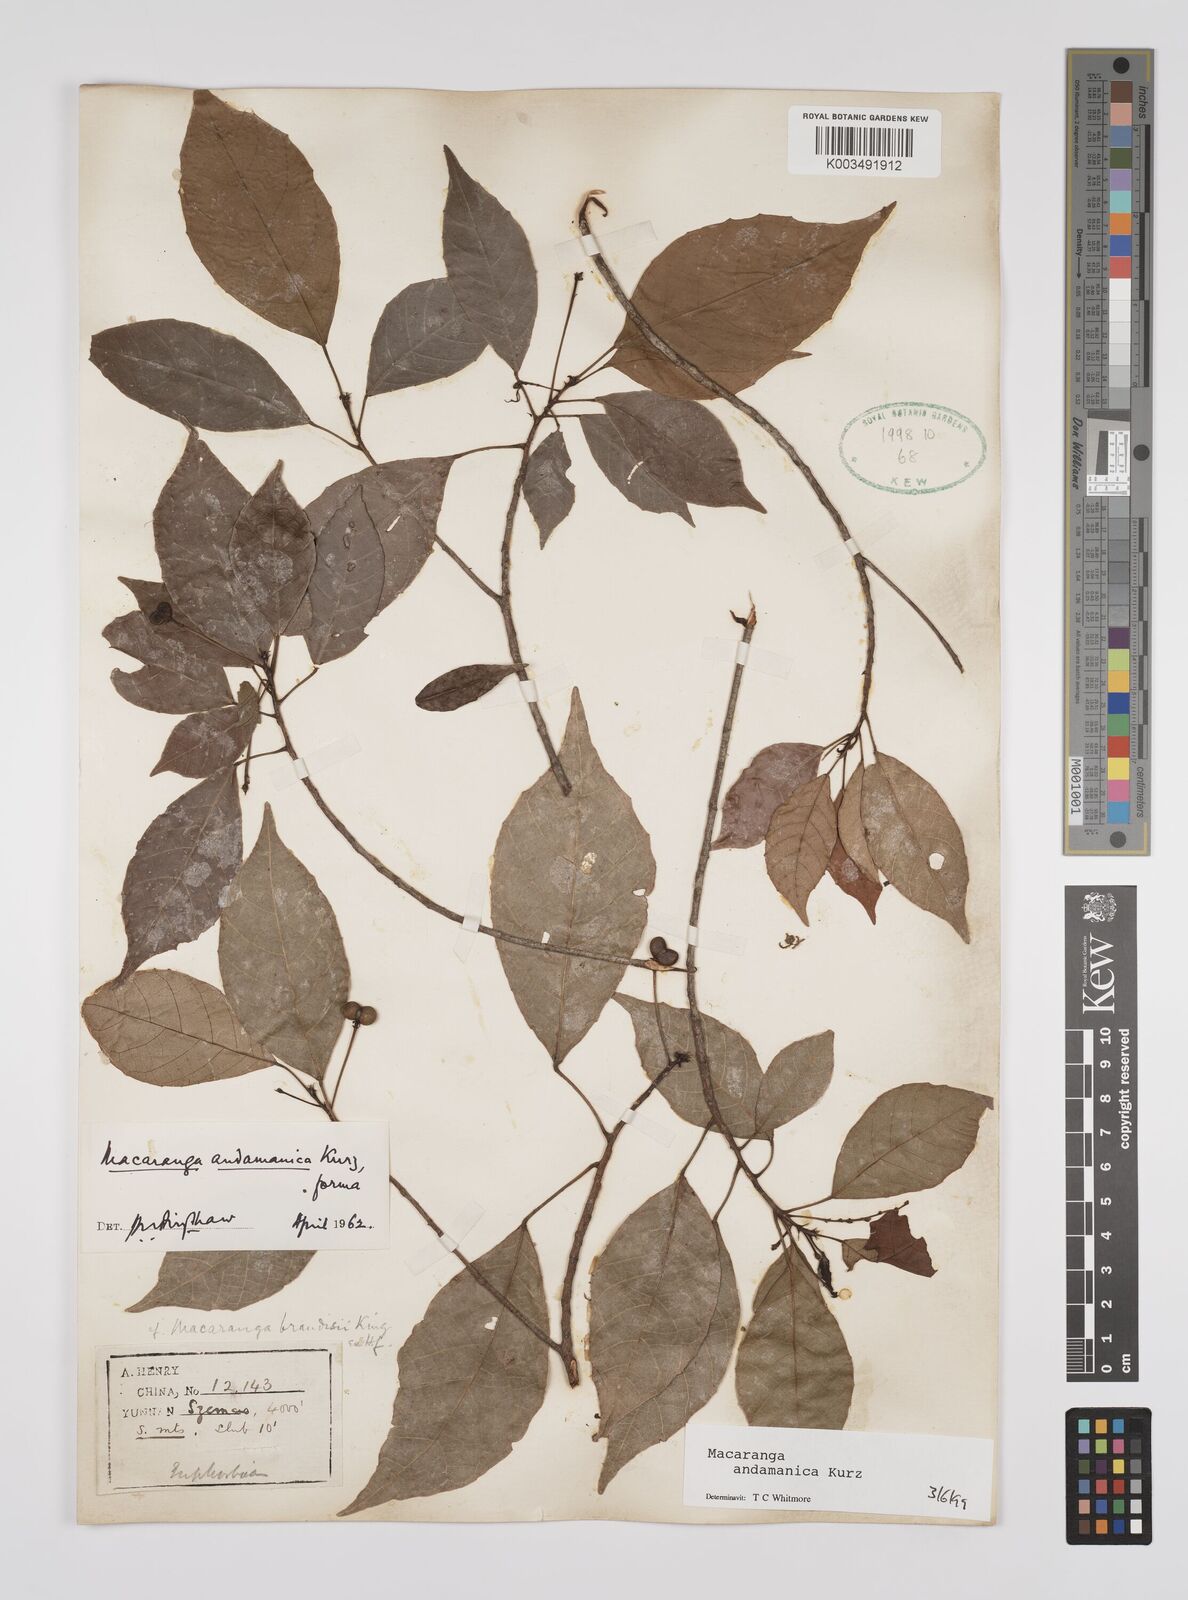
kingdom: Plantae
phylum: Tracheophyta
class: Magnoliopsida
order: Malpighiales
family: Euphorbiaceae
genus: Macaranga
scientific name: Macaranga andamanica
